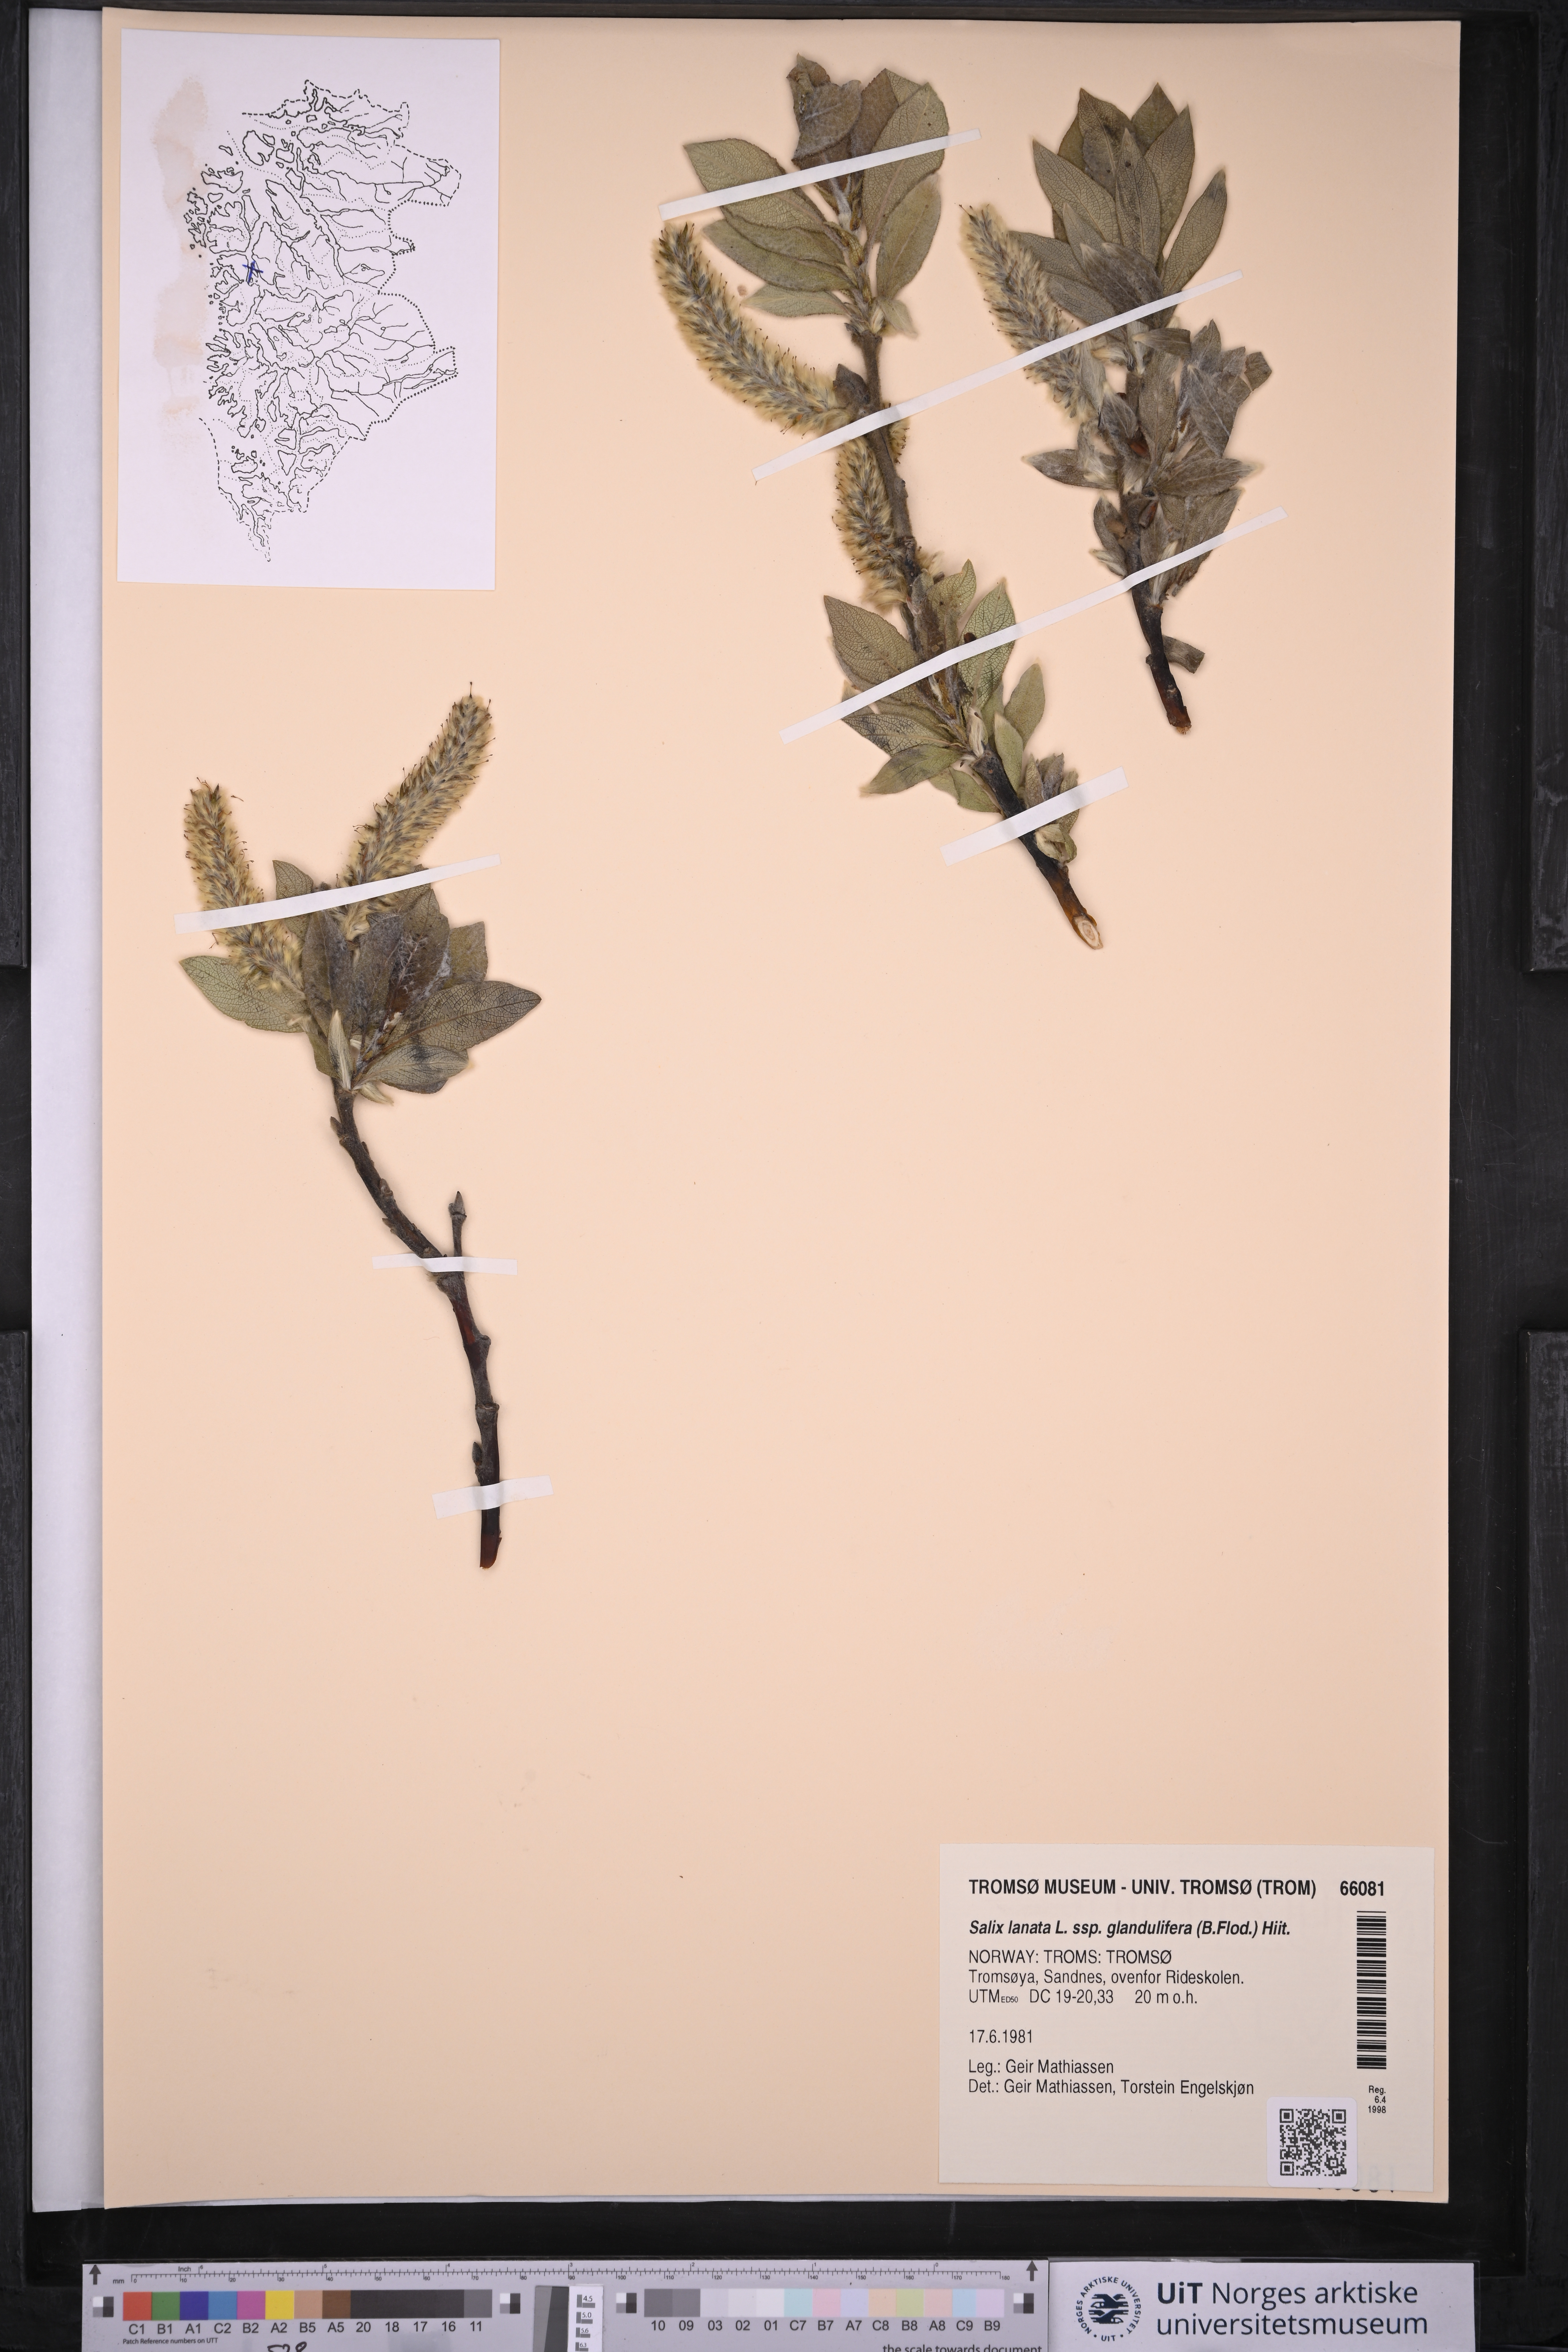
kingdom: Plantae
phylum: Tracheophyta
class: Magnoliopsida
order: Malpighiales
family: Salicaceae
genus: Salix
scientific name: Salix lanata
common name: Woolly willow
